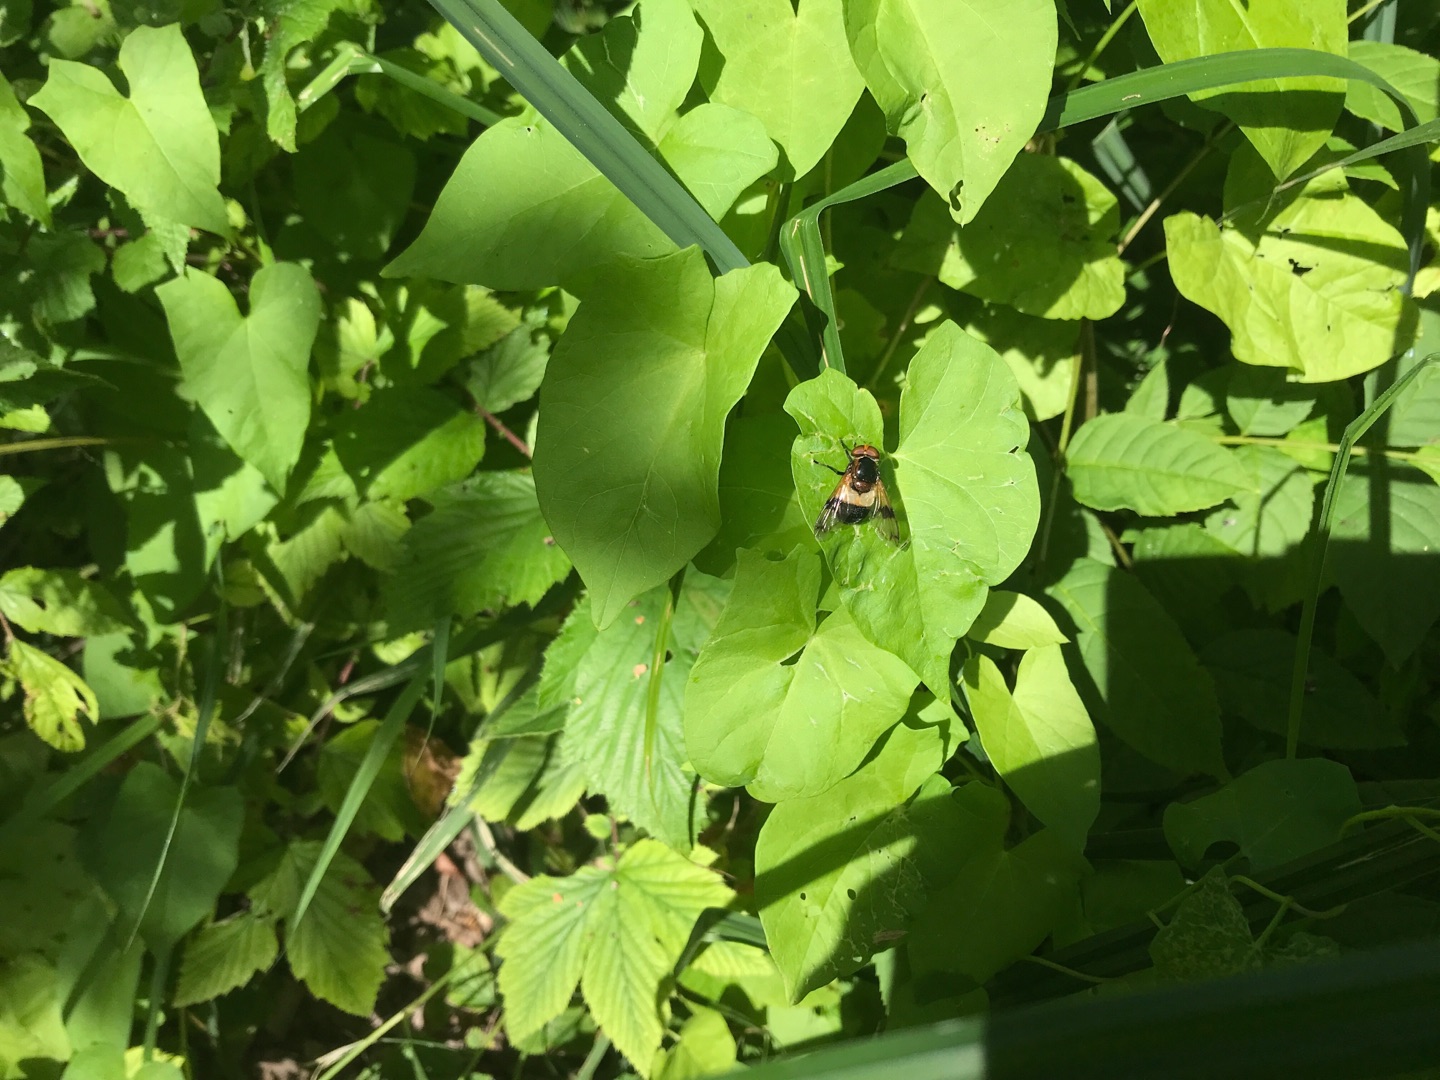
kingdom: Animalia
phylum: Arthropoda
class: Insecta
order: Diptera
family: Syrphidae
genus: Volucella
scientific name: Volucella pellucens
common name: Hvidbåndet humlesvirreflue
